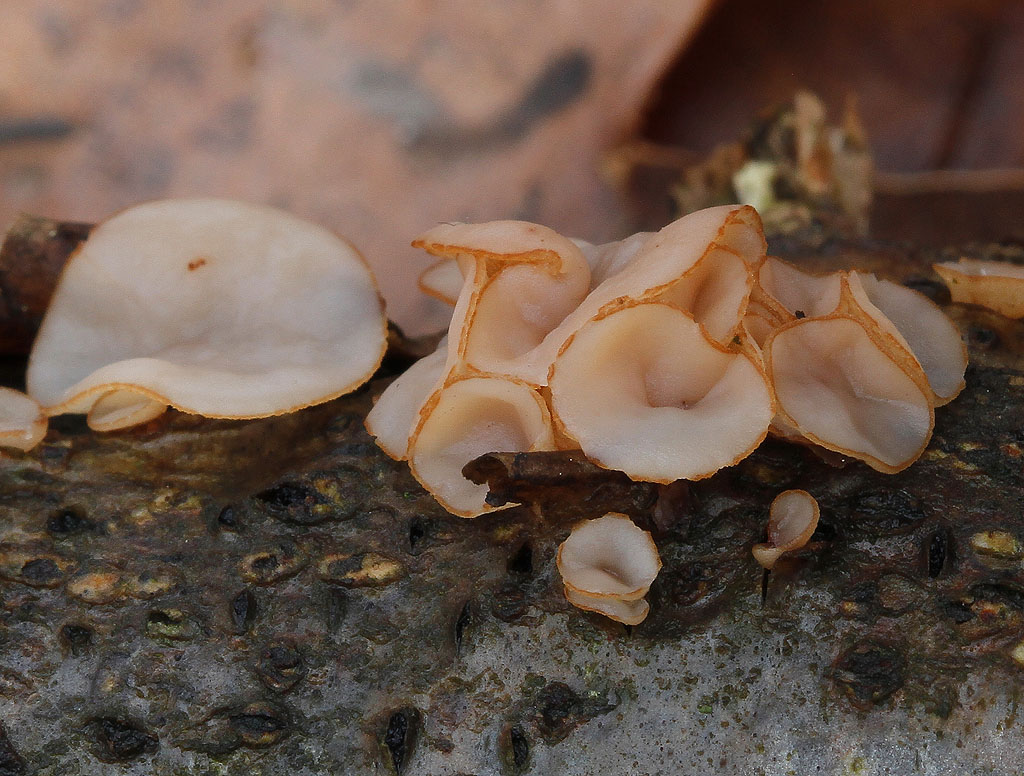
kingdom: Fungi
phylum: Ascomycota
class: Leotiomycetes
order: Helotiales
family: Rutstroemiaceae
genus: Rutstroemia
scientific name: Rutstroemia firma
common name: gren-brunskive
